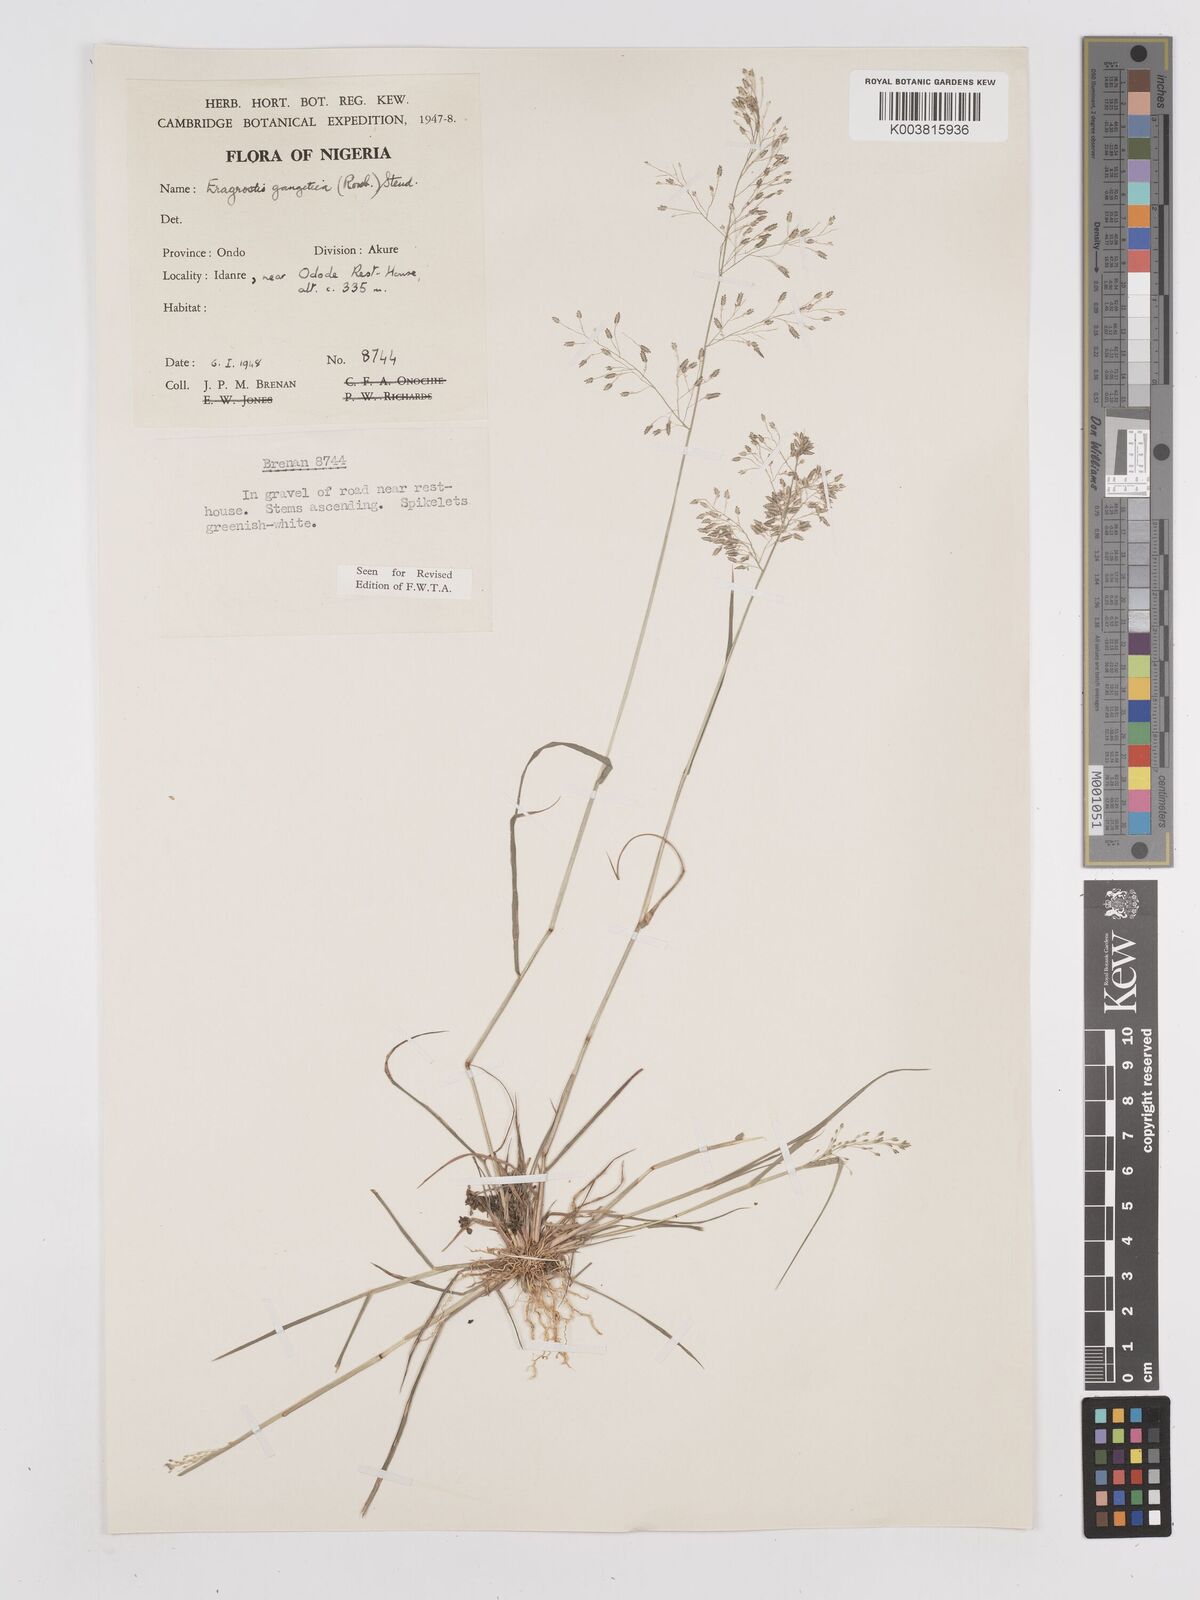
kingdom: Plantae
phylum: Tracheophyta
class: Liliopsida
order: Poales
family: Poaceae
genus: Eragrostis
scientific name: Eragrostis gangetica
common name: Slimflower lovegrass
